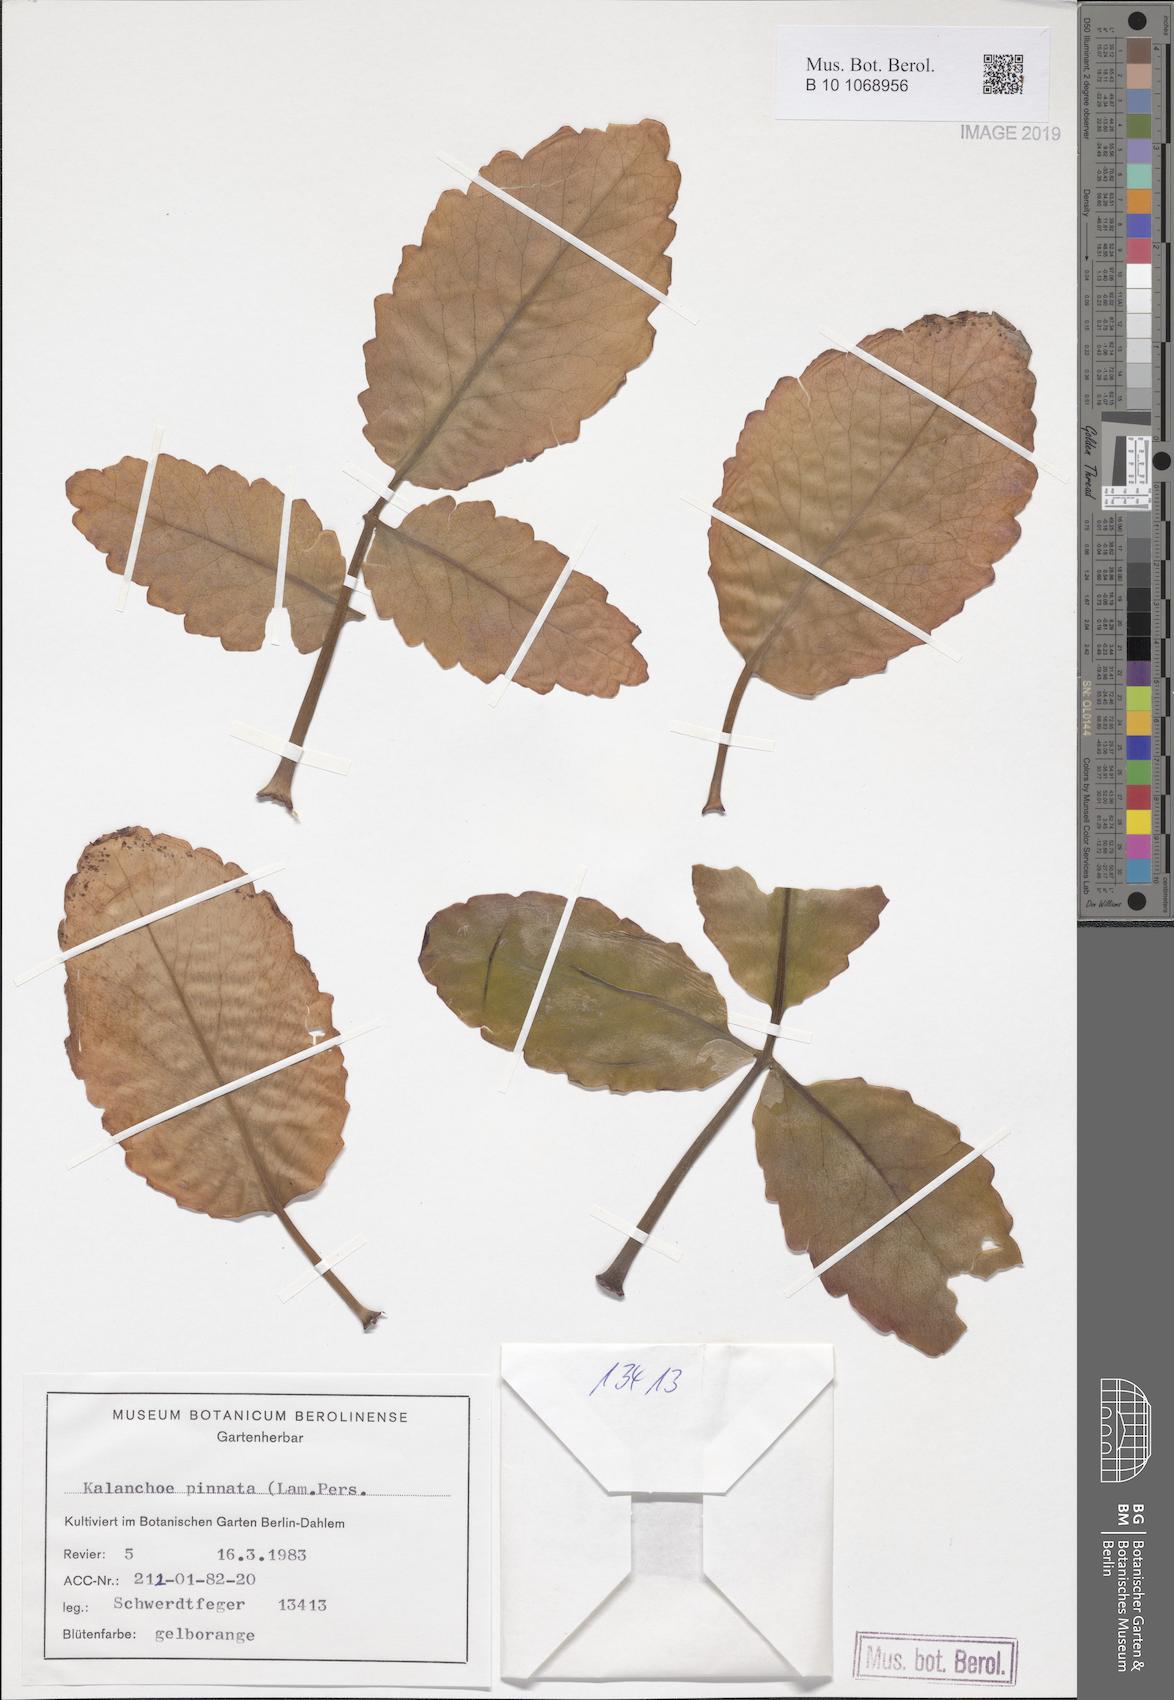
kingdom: Plantae
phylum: Tracheophyta
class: Magnoliopsida
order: Saxifragales
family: Crassulaceae
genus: Kalanchoe
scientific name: Kalanchoe pinnata
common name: Cathedral bells
